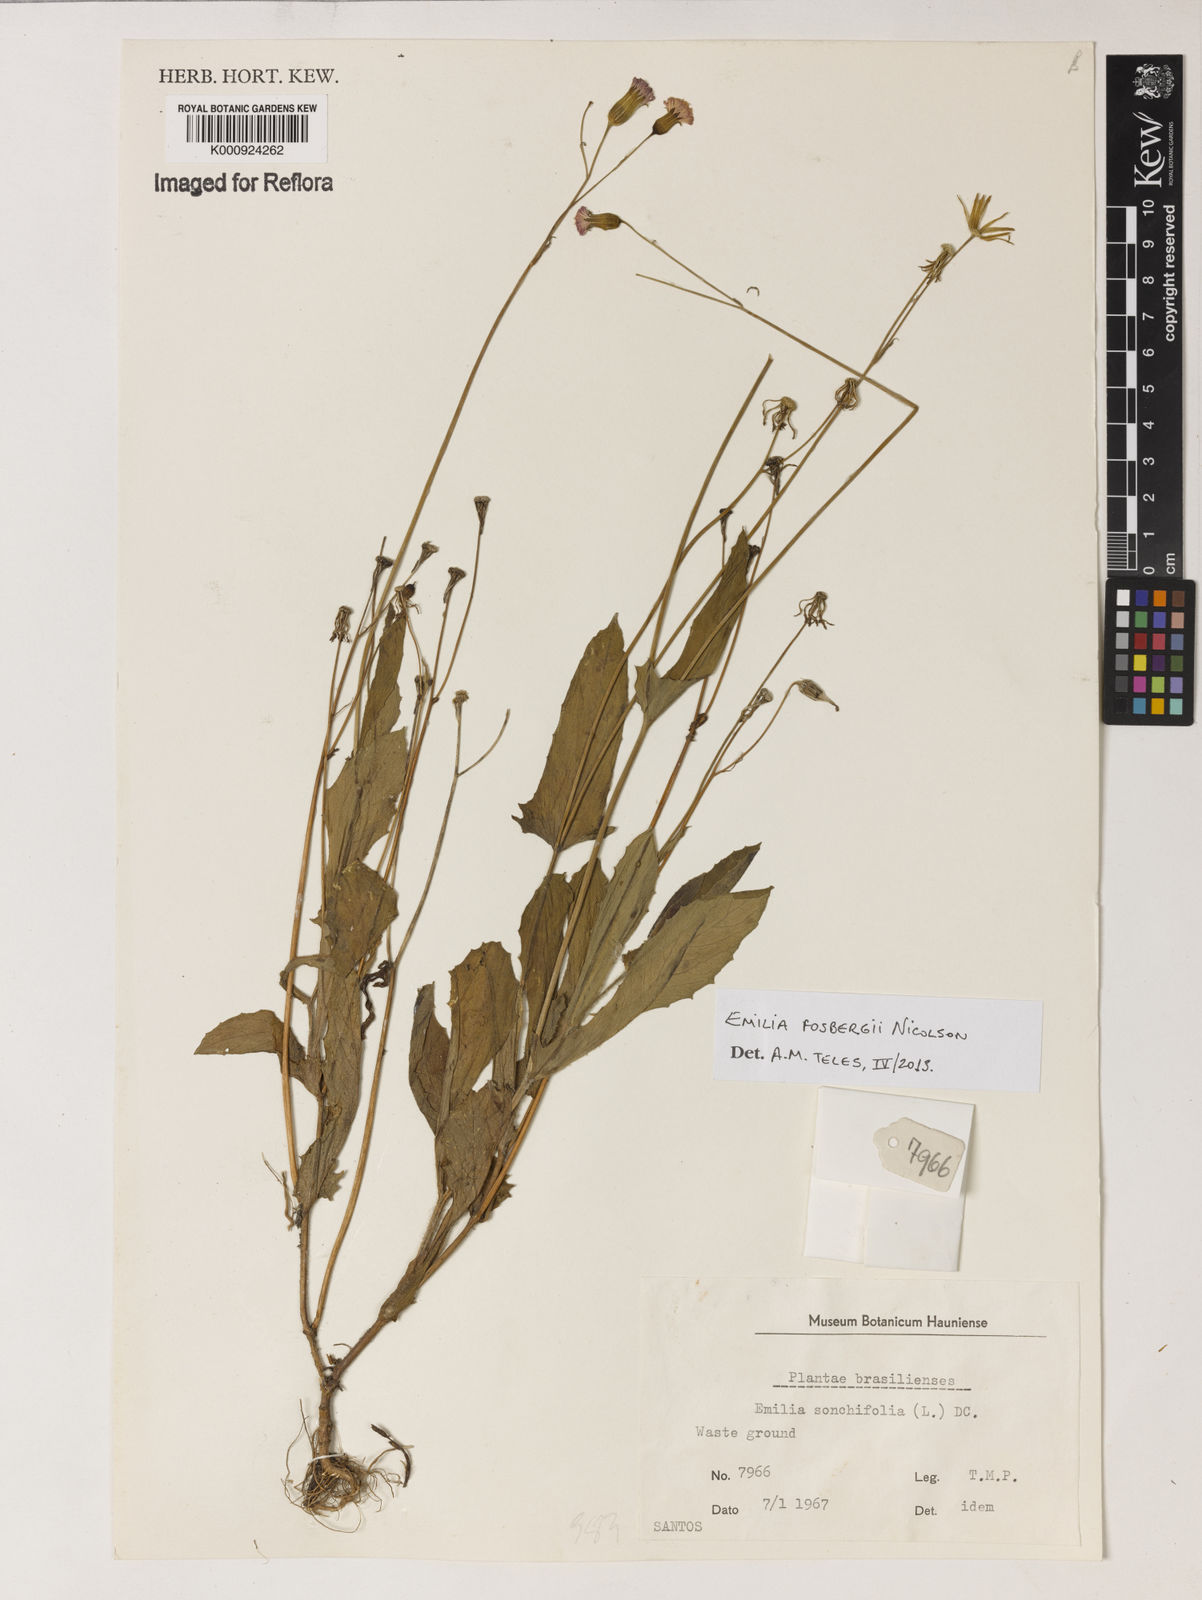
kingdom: Plantae
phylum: Tracheophyta
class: Magnoliopsida
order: Asterales
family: Asteraceae
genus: Emilia
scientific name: Emilia fosbergii
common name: Florida tasselflower
